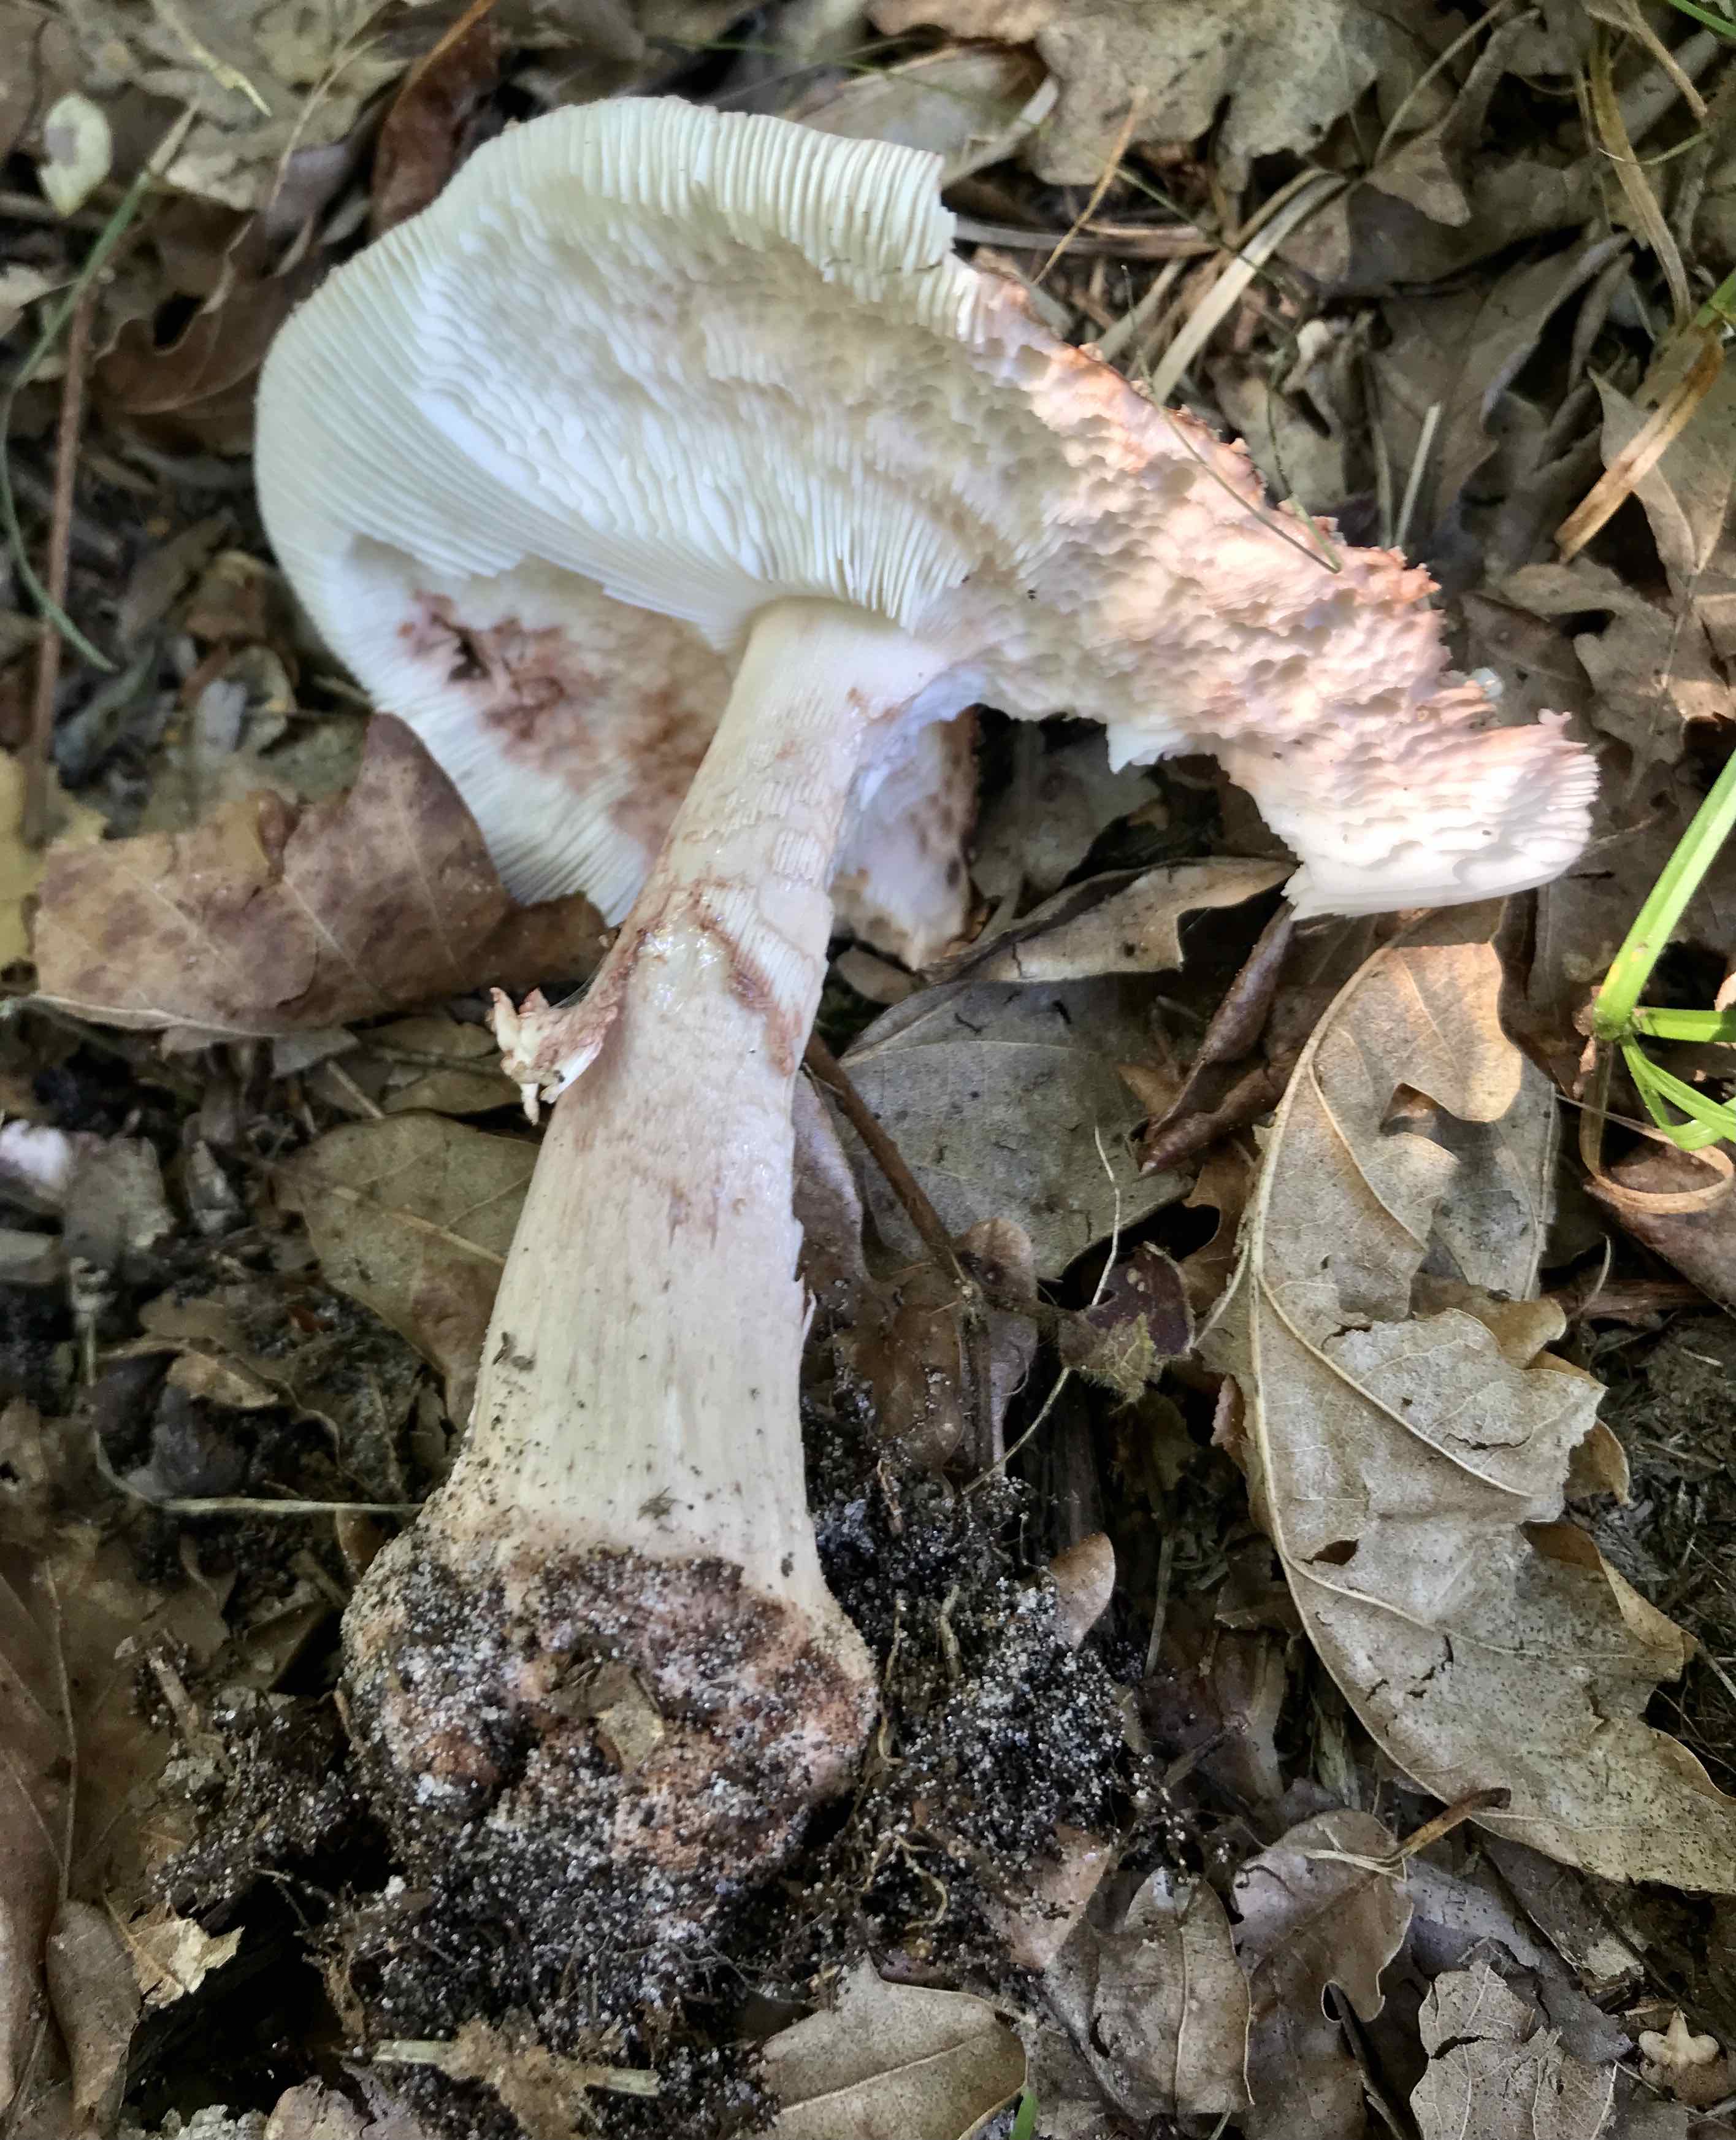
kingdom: Fungi
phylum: Basidiomycota
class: Agaricomycetes
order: Agaricales
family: Amanitaceae
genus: Amanita
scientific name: Amanita rubescens
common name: rødmende fluesvamp
